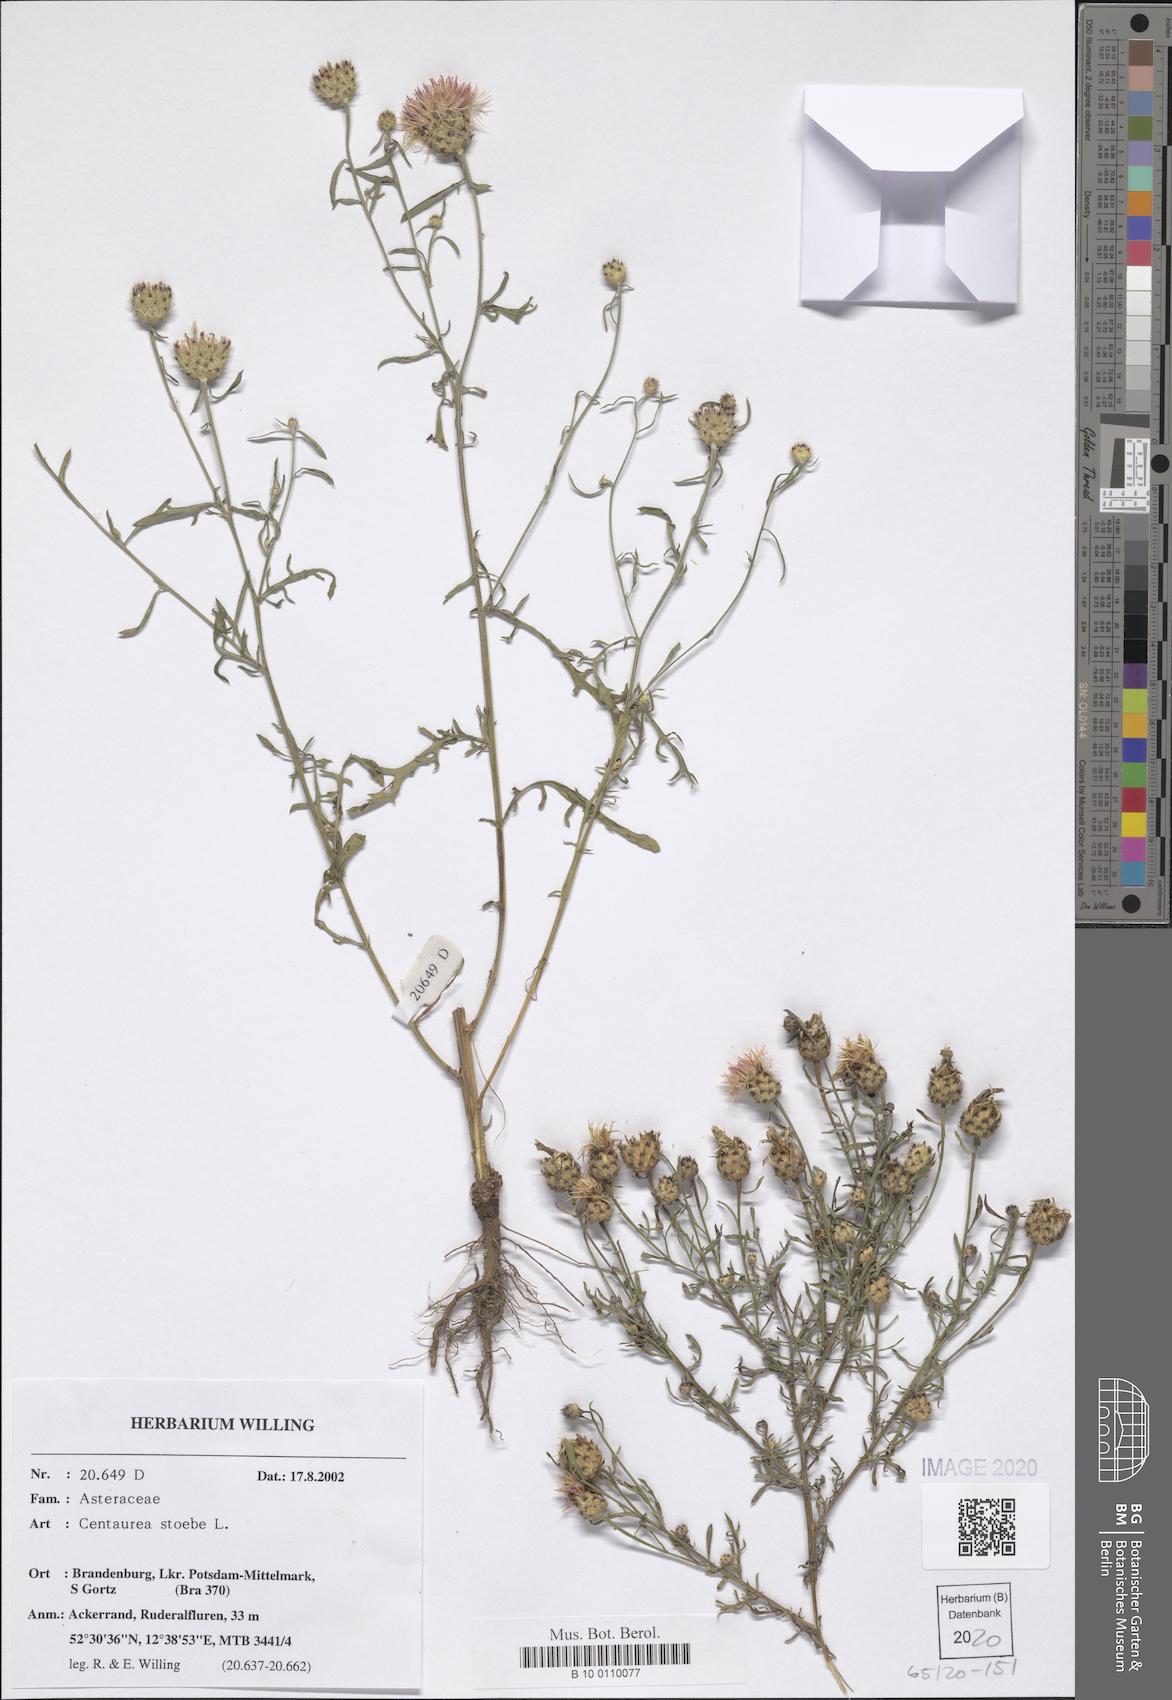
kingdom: Plantae
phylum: Tracheophyta
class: Magnoliopsida
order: Asterales
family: Asteraceae
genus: Centaurea
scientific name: Centaurea stoebe
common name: Spotted knapweed
